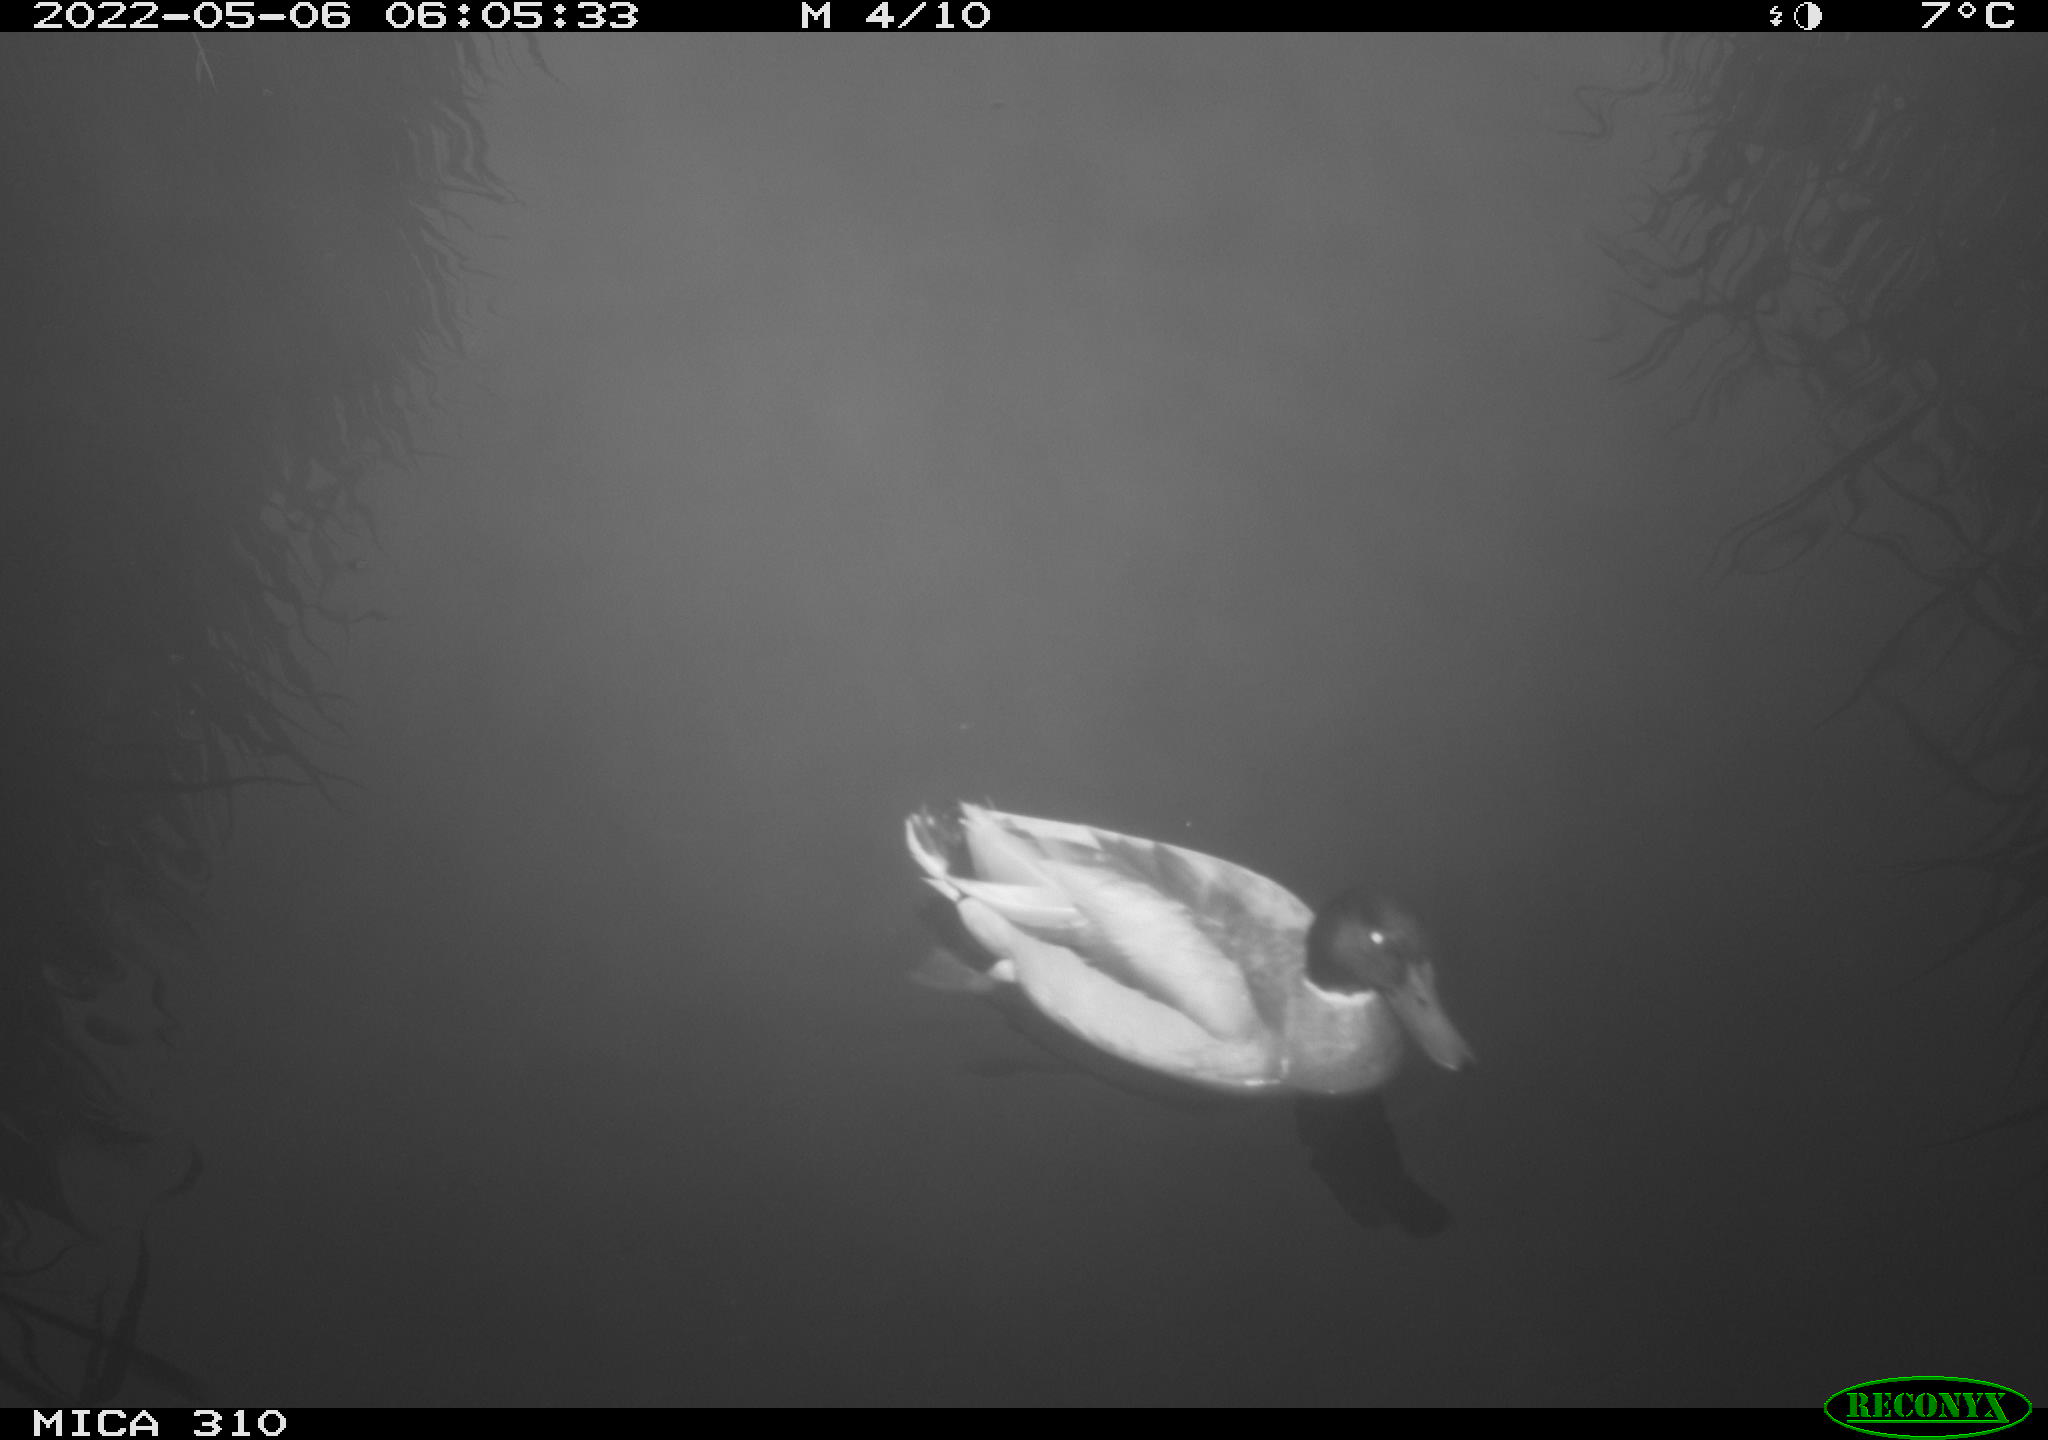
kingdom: Animalia
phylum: Chordata
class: Aves
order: Anseriformes
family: Anatidae
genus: Anas
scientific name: Anas platyrhynchos
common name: Mallard
